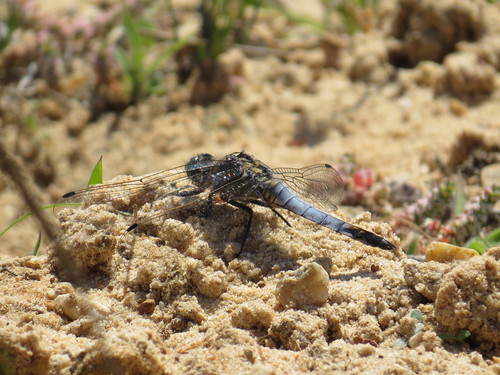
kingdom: Animalia
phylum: Arthropoda
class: Insecta
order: Odonata
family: Libellulidae
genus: Orthetrum
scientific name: Orthetrum cancellatum
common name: Black-tailed skimmer
